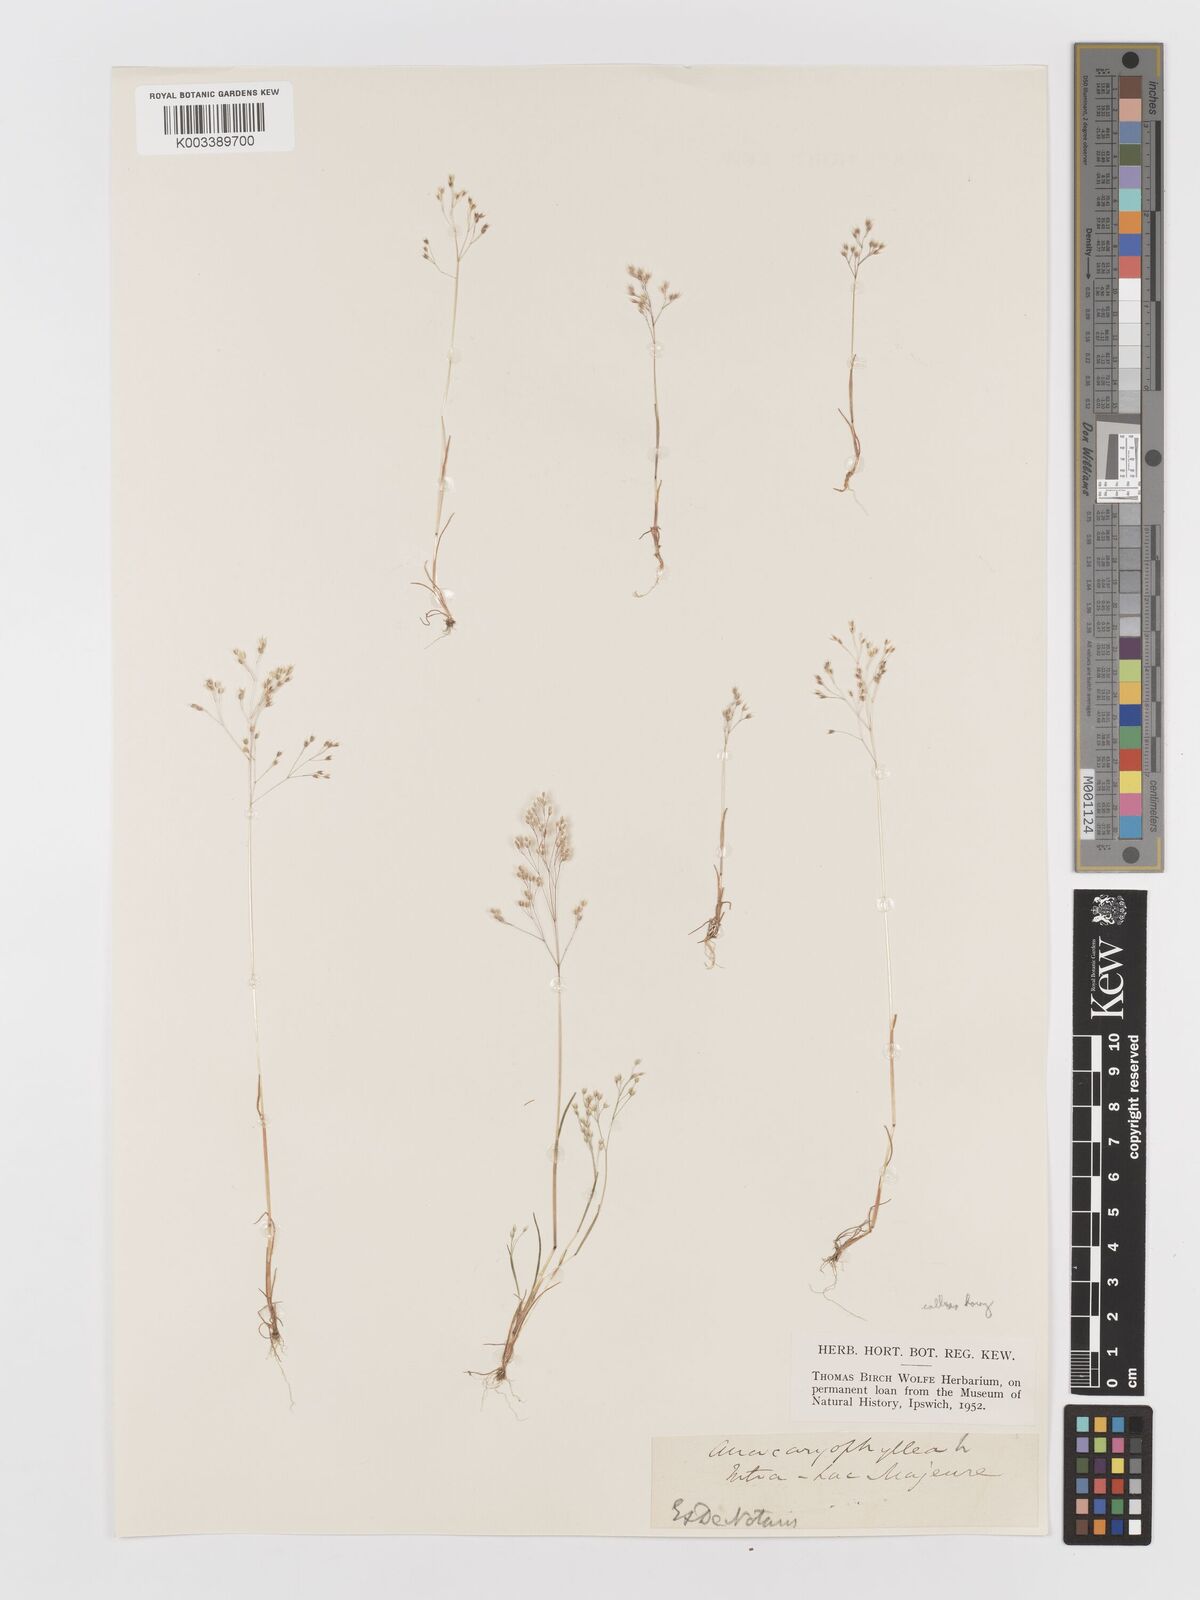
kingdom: Plantae
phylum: Tracheophyta
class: Liliopsida
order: Poales
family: Poaceae
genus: Aira
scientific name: Aira caryophyllea
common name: Silver hairgrass
